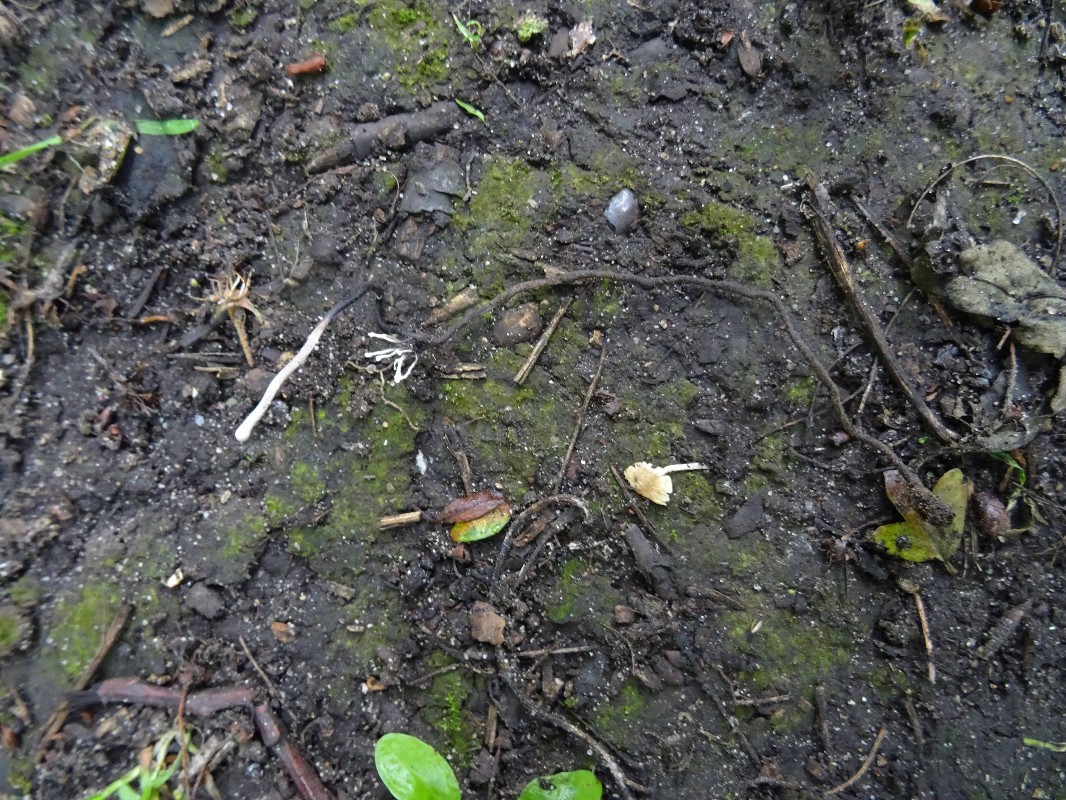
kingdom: Fungi
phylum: Ascomycota
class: Sordariomycetes
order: Hypocreales
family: Ophiocordycipitaceae
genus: Ophiocordyceps
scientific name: Ophiocordyceps entomorrhiza
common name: grå snyltekølle
